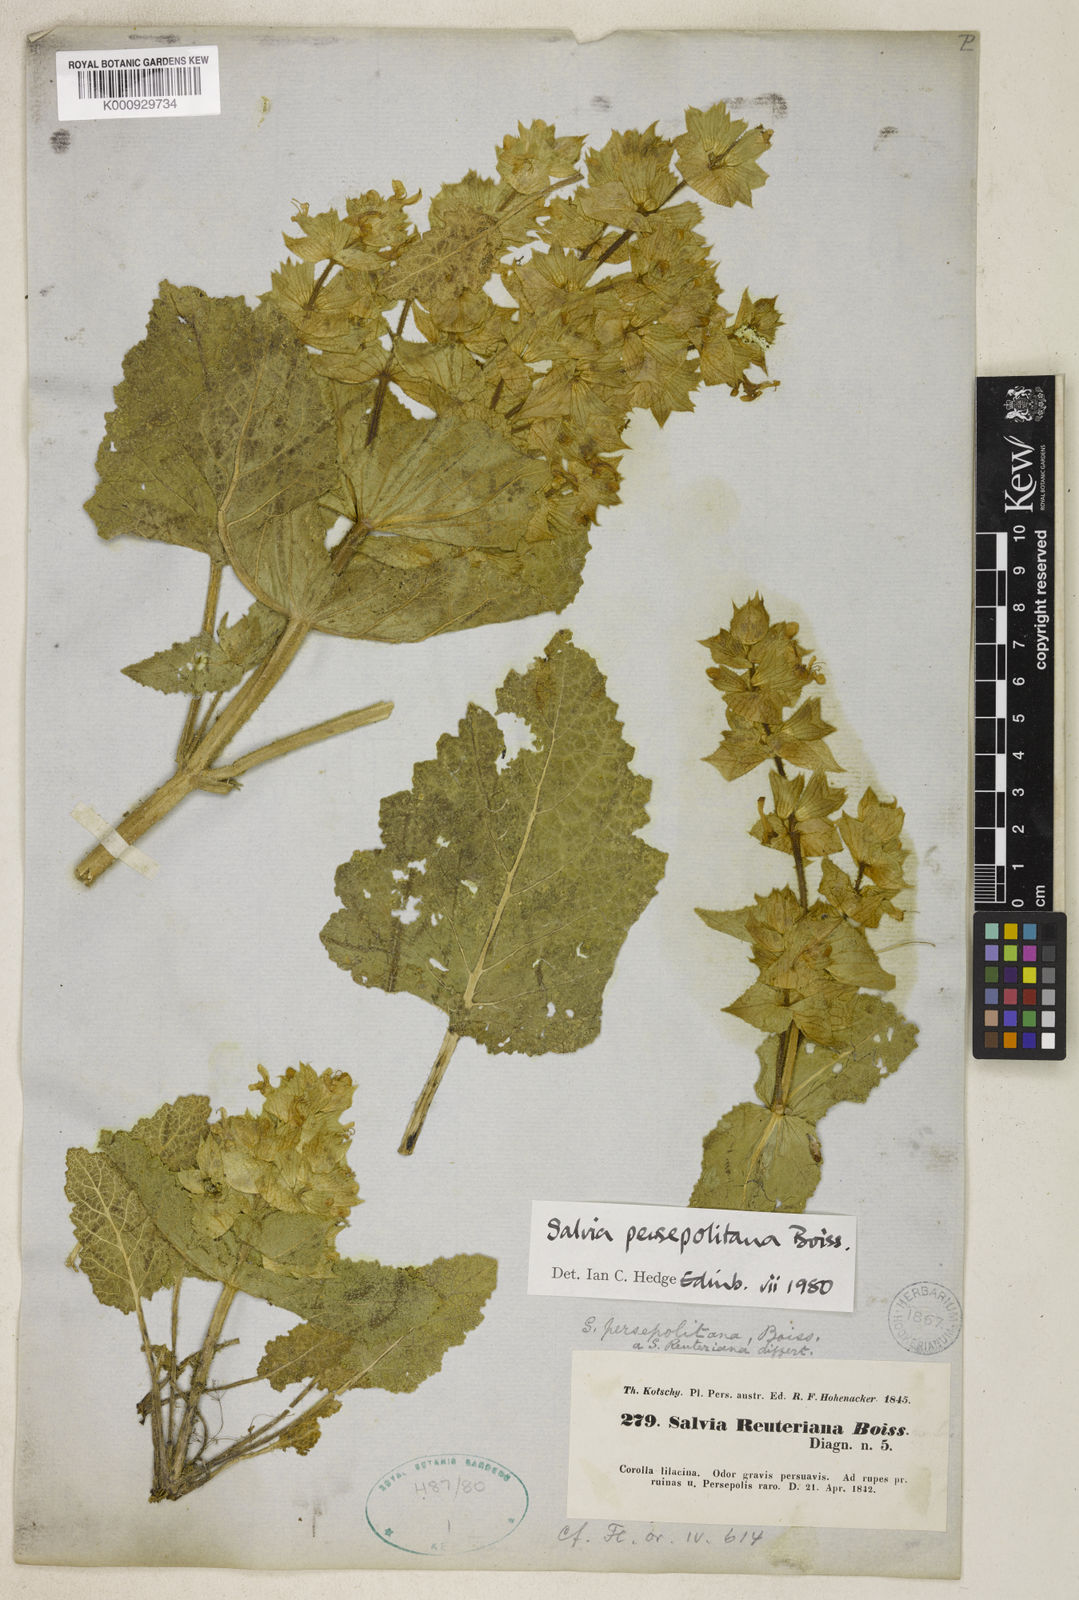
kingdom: Plantae
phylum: Tracheophyta
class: Magnoliopsida
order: Lamiales
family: Lamiaceae
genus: Salvia
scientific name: Salvia persepolitana
